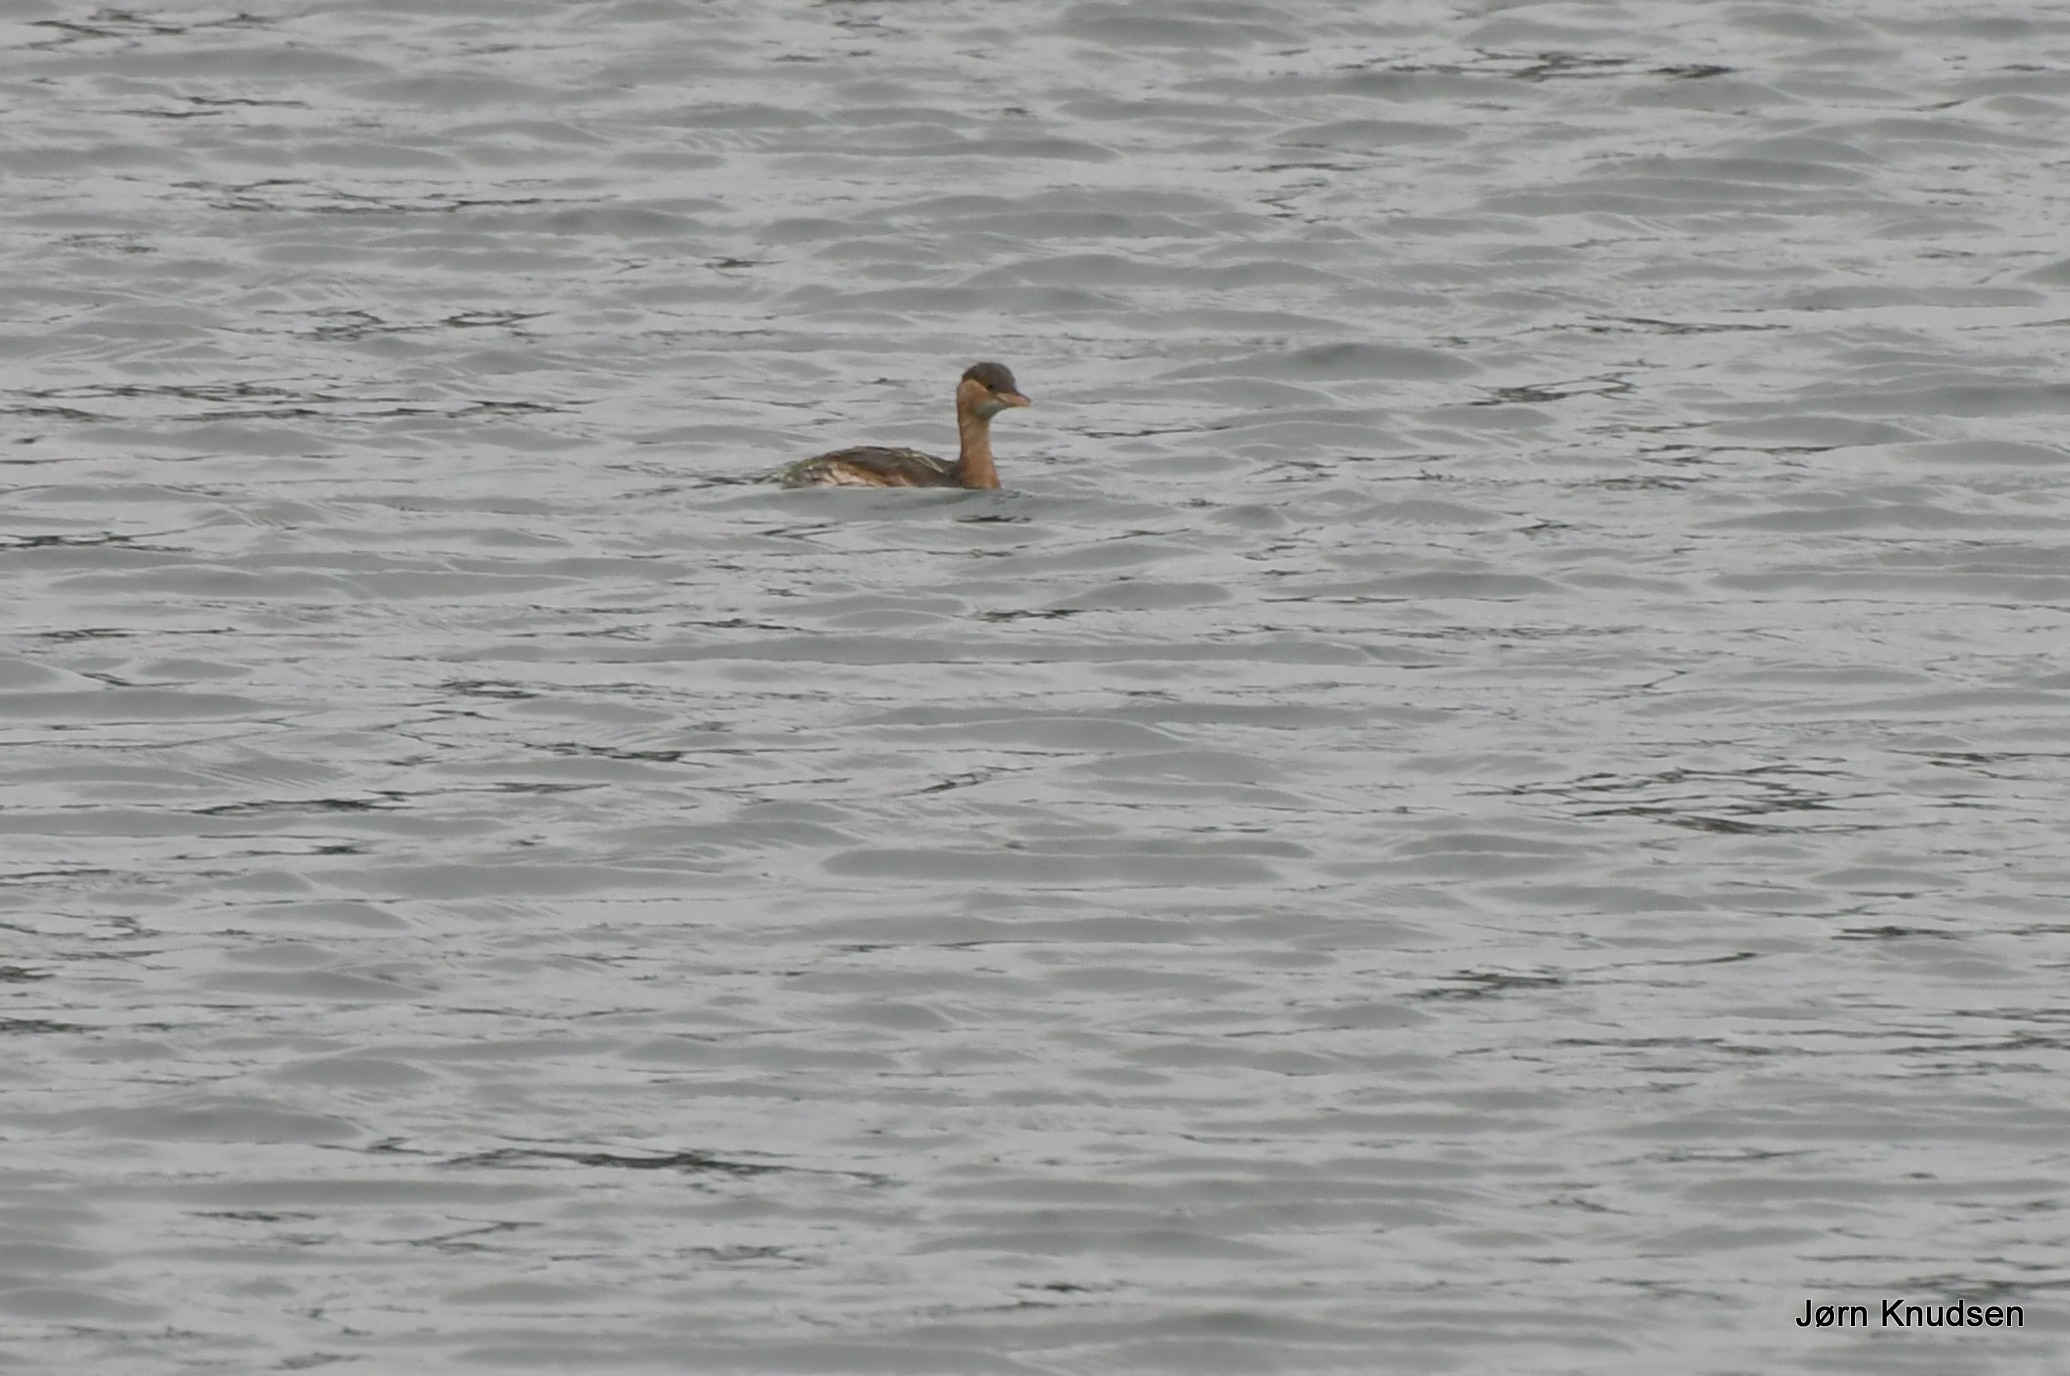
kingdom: Animalia
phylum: Chordata
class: Aves
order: Podicipediformes
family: Podicipedidae
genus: Tachybaptus
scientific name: Tachybaptus ruficollis
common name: Lille lappedykker
